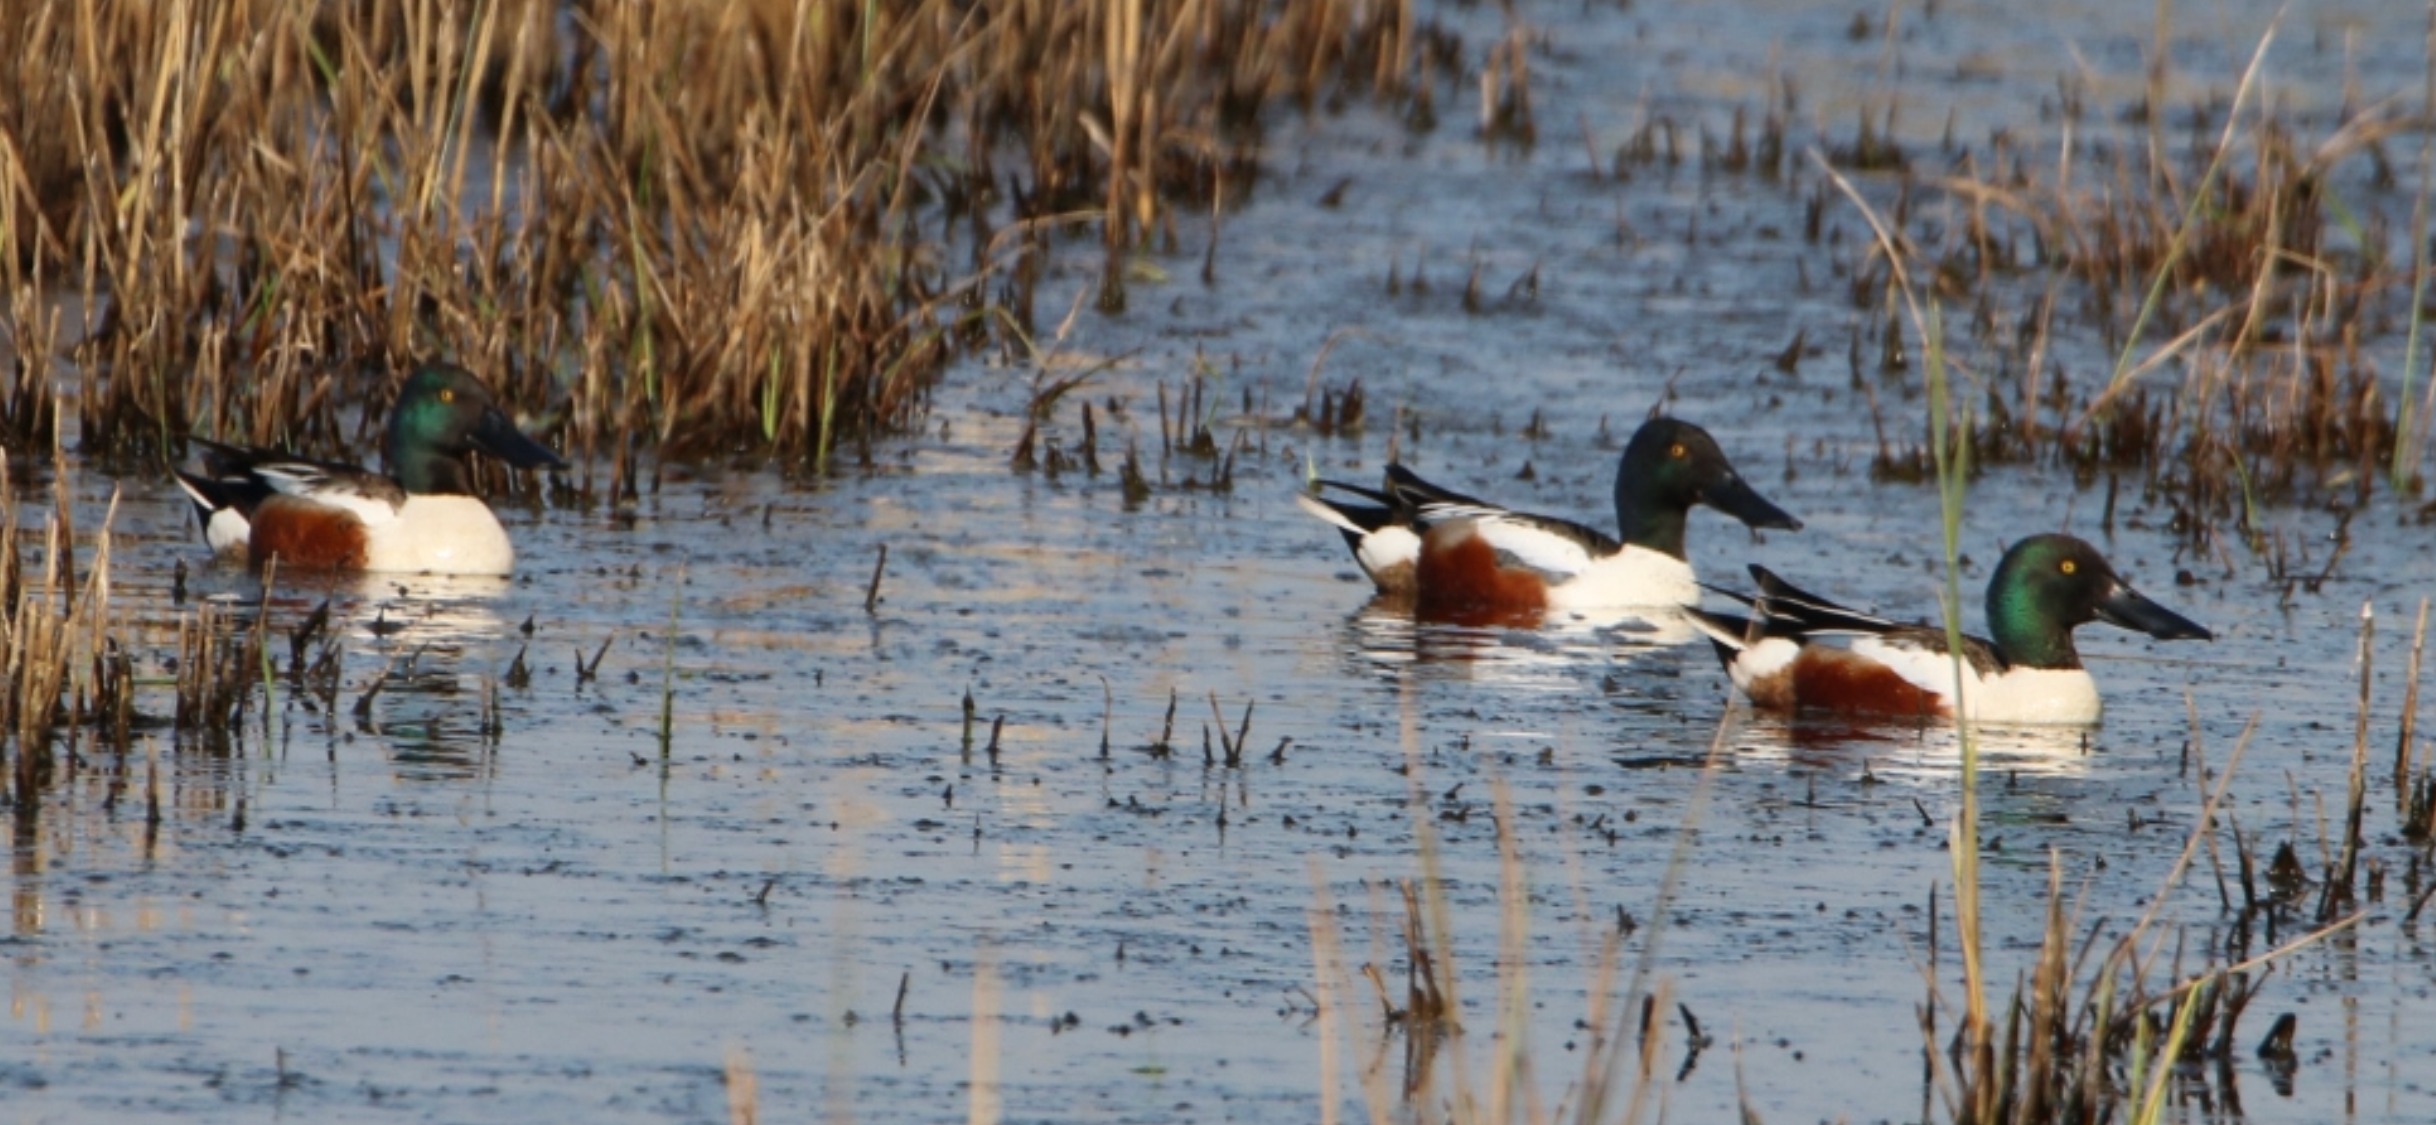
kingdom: Animalia
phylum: Chordata
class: Aves
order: Anseriformes
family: Anatidae
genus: Spatula
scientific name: Spatula clypeata
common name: Skeand
